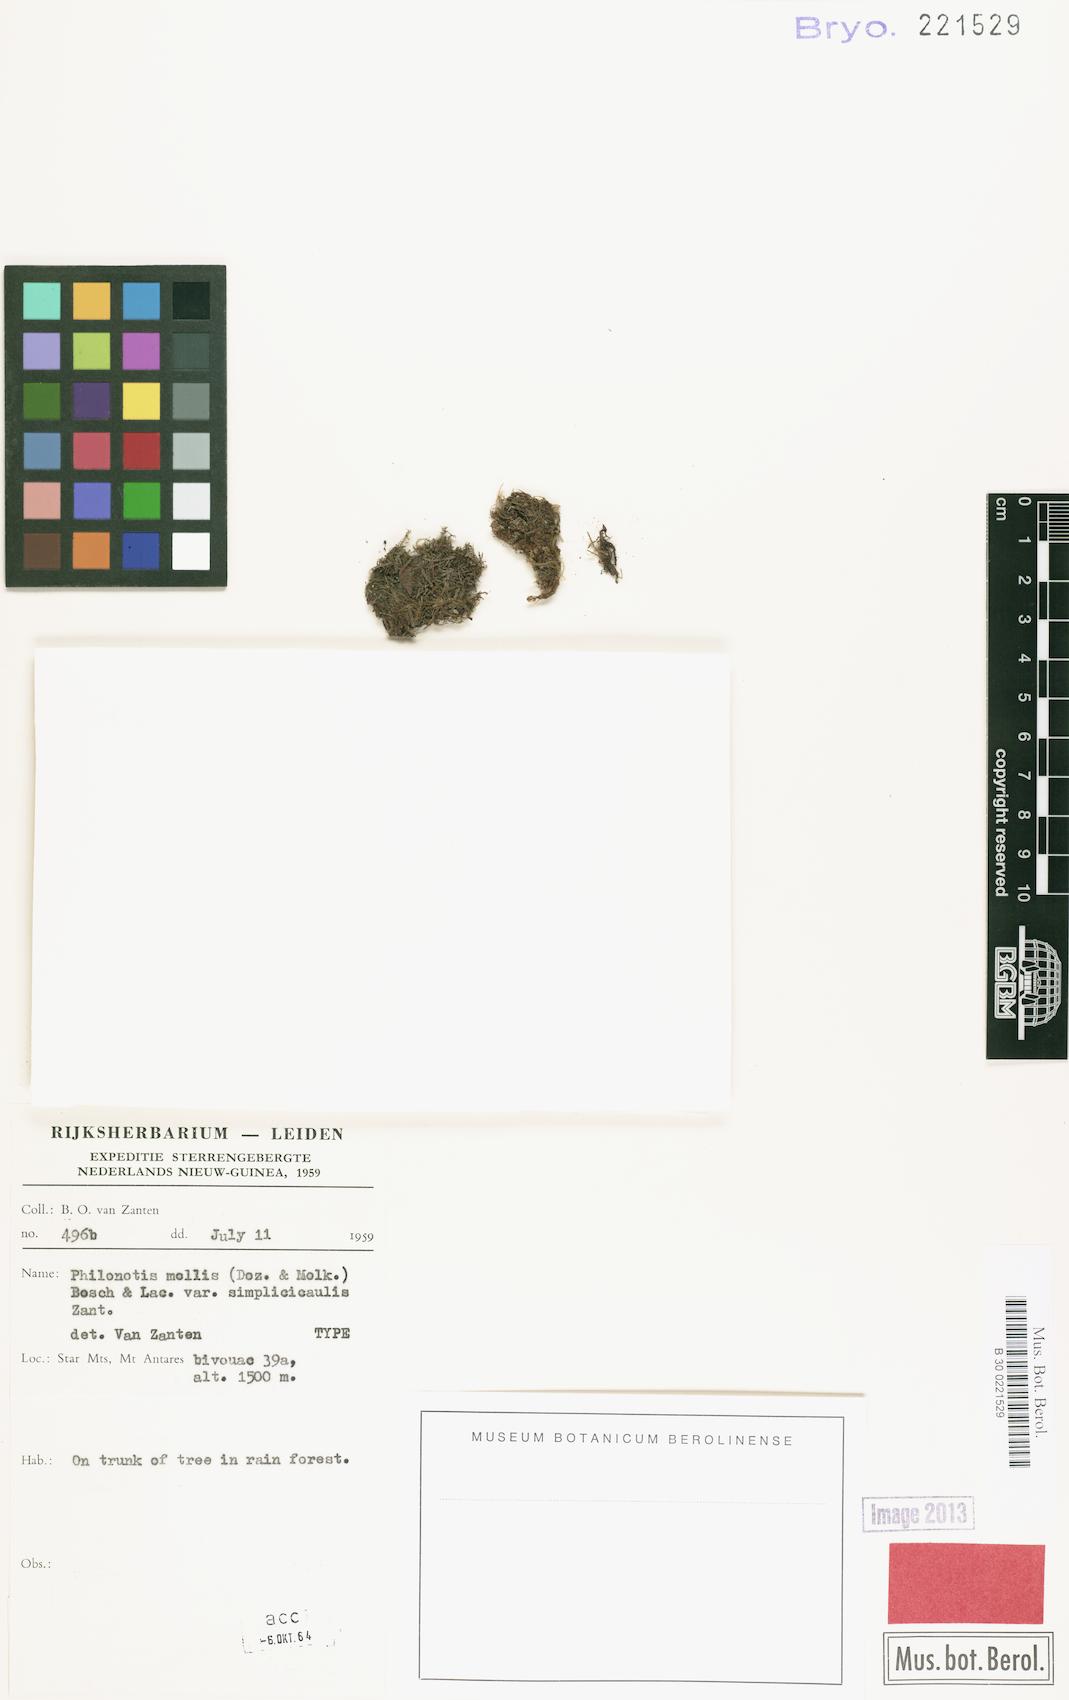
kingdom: Plantae
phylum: Bryophyta
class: Bryopsida
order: Bartramiales
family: Bartramiaceae
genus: Philonotis
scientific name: Philonotis pseudomollis
